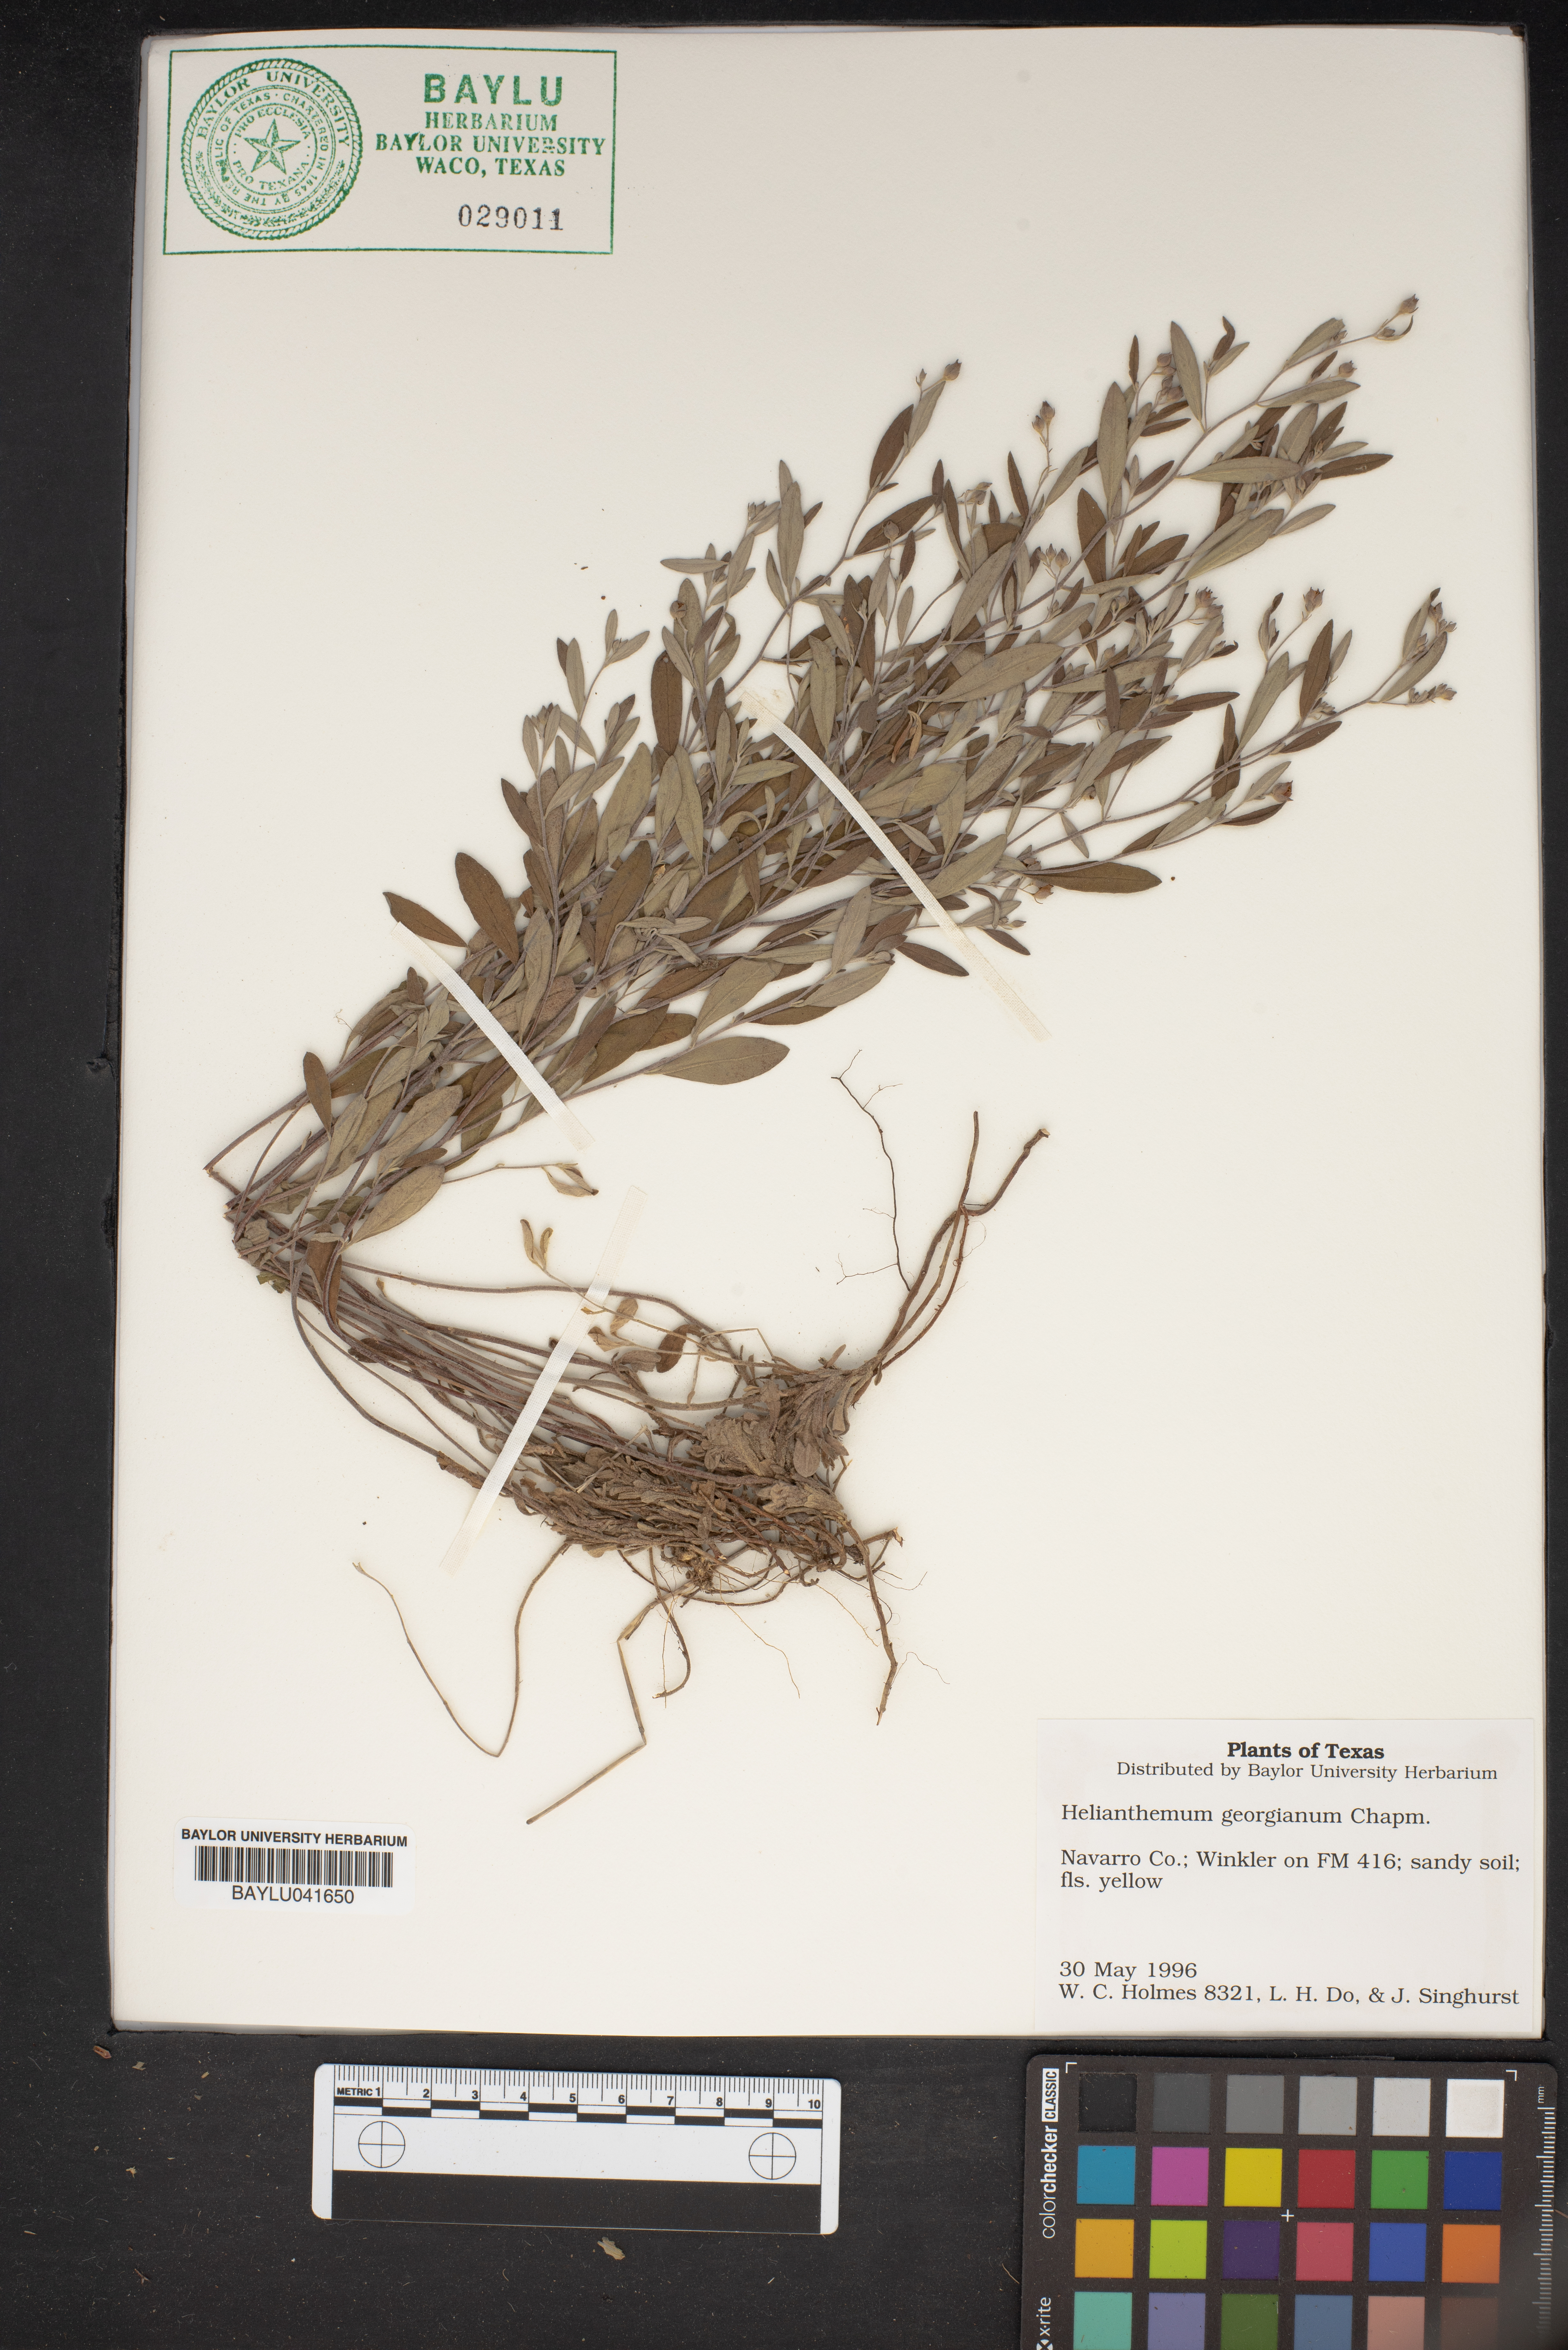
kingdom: Plantae
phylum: Tracheophyta
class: Magnoliopsida
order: Malvales
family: Cistaceae
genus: Crocanthemum
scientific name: Crocanthemum georgianum
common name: Georgia frostweed
